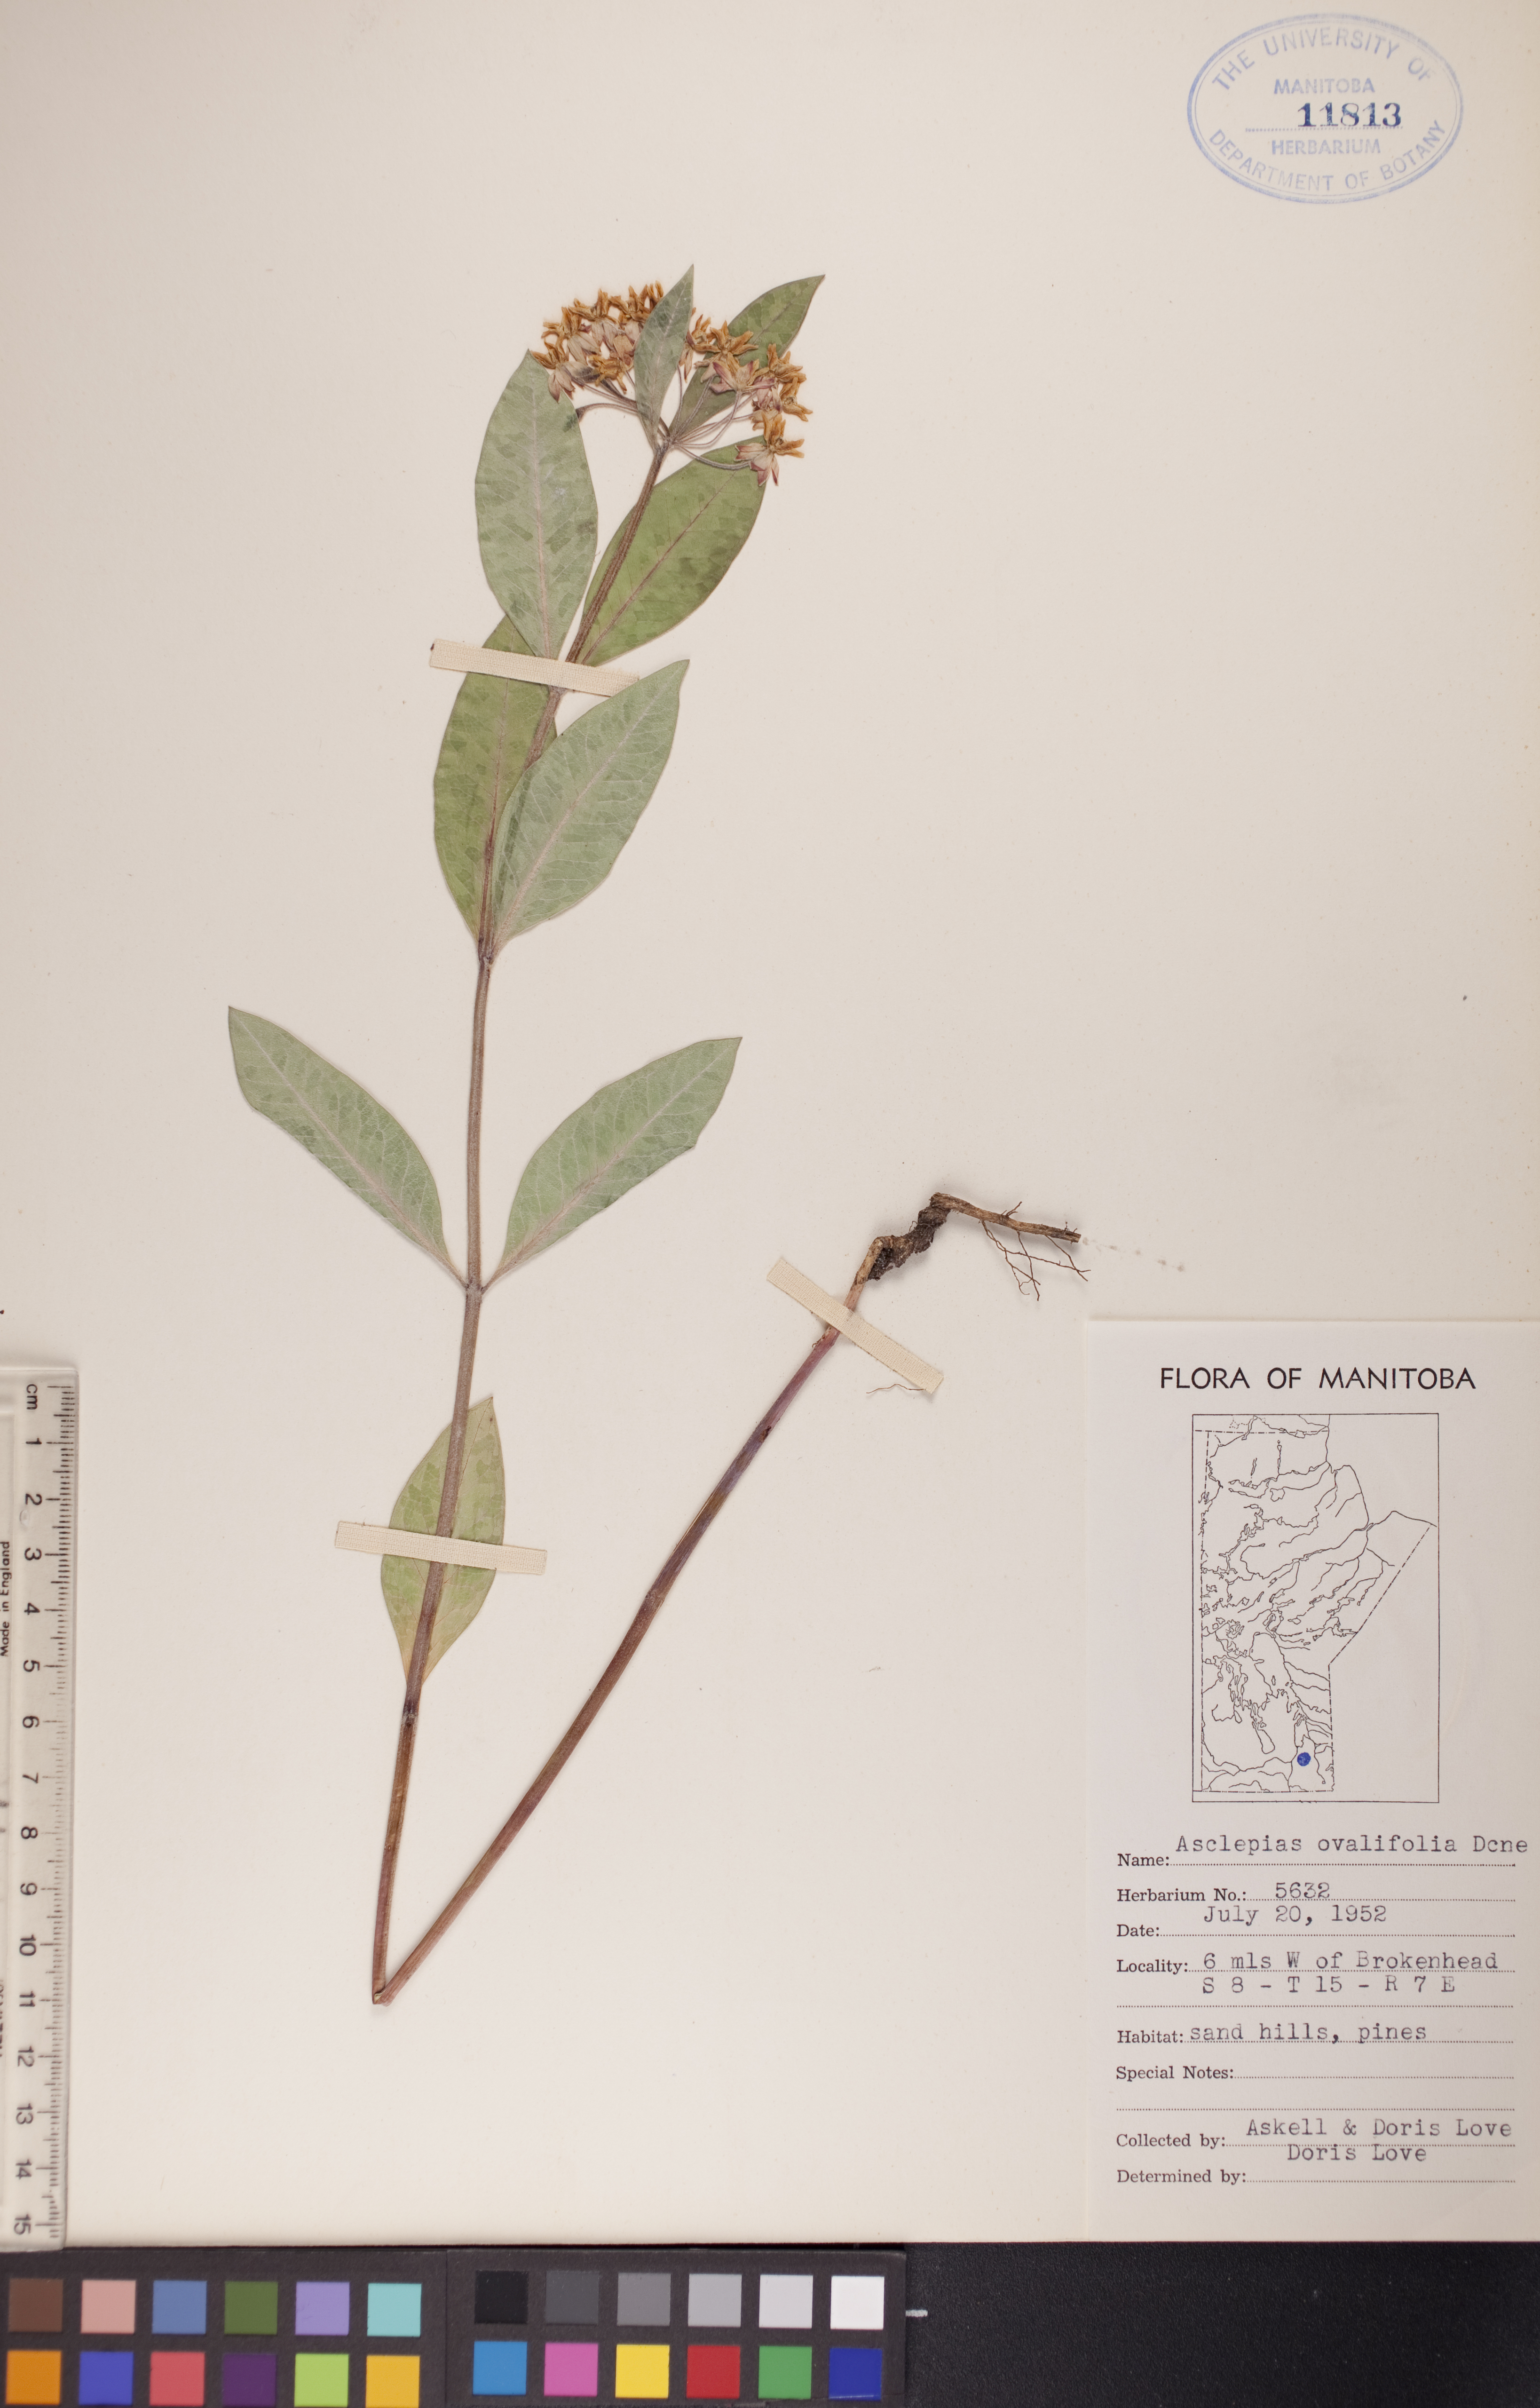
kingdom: Plantae
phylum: Tracheophyta
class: Magnoliopsida
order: Gentianales
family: Apocynaceae
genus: Asclepias
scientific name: Asclepias ovalifolia
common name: Dwarf milkweed
